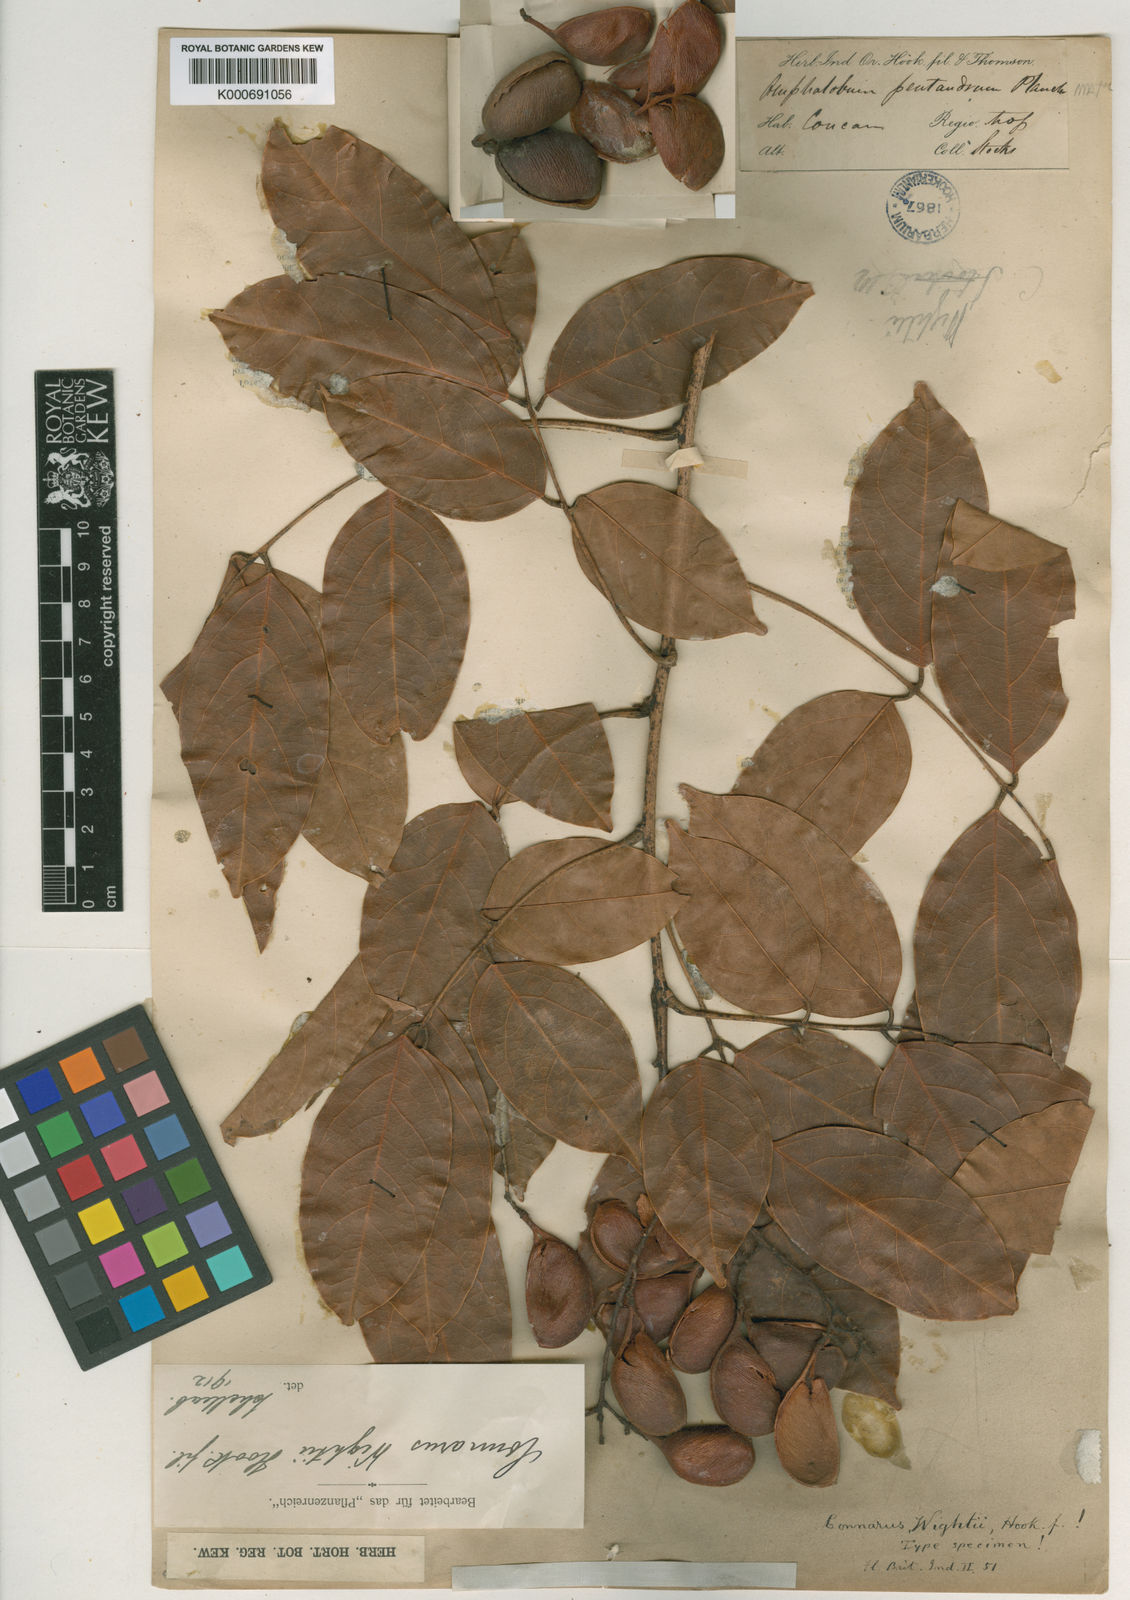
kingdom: Plantae
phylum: Tracheophyta
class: Magnoliopsida
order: Oxalidales
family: Connaraceae
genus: Connarus
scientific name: Connarus wightii
